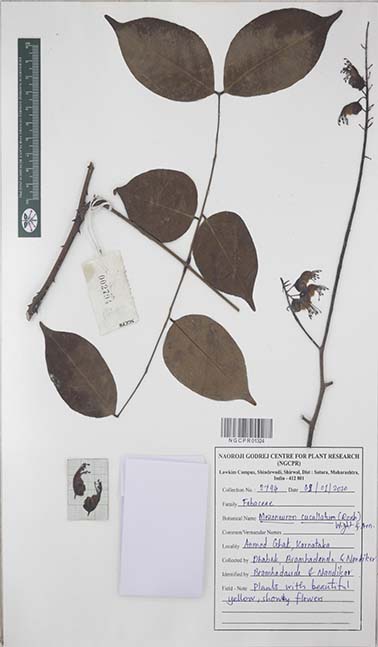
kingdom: Plantae
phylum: Tracheophyta
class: Magnoliopsida
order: Fabales
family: Fabaceae
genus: Mezoneuron
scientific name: Mezoneuron cucullatum
